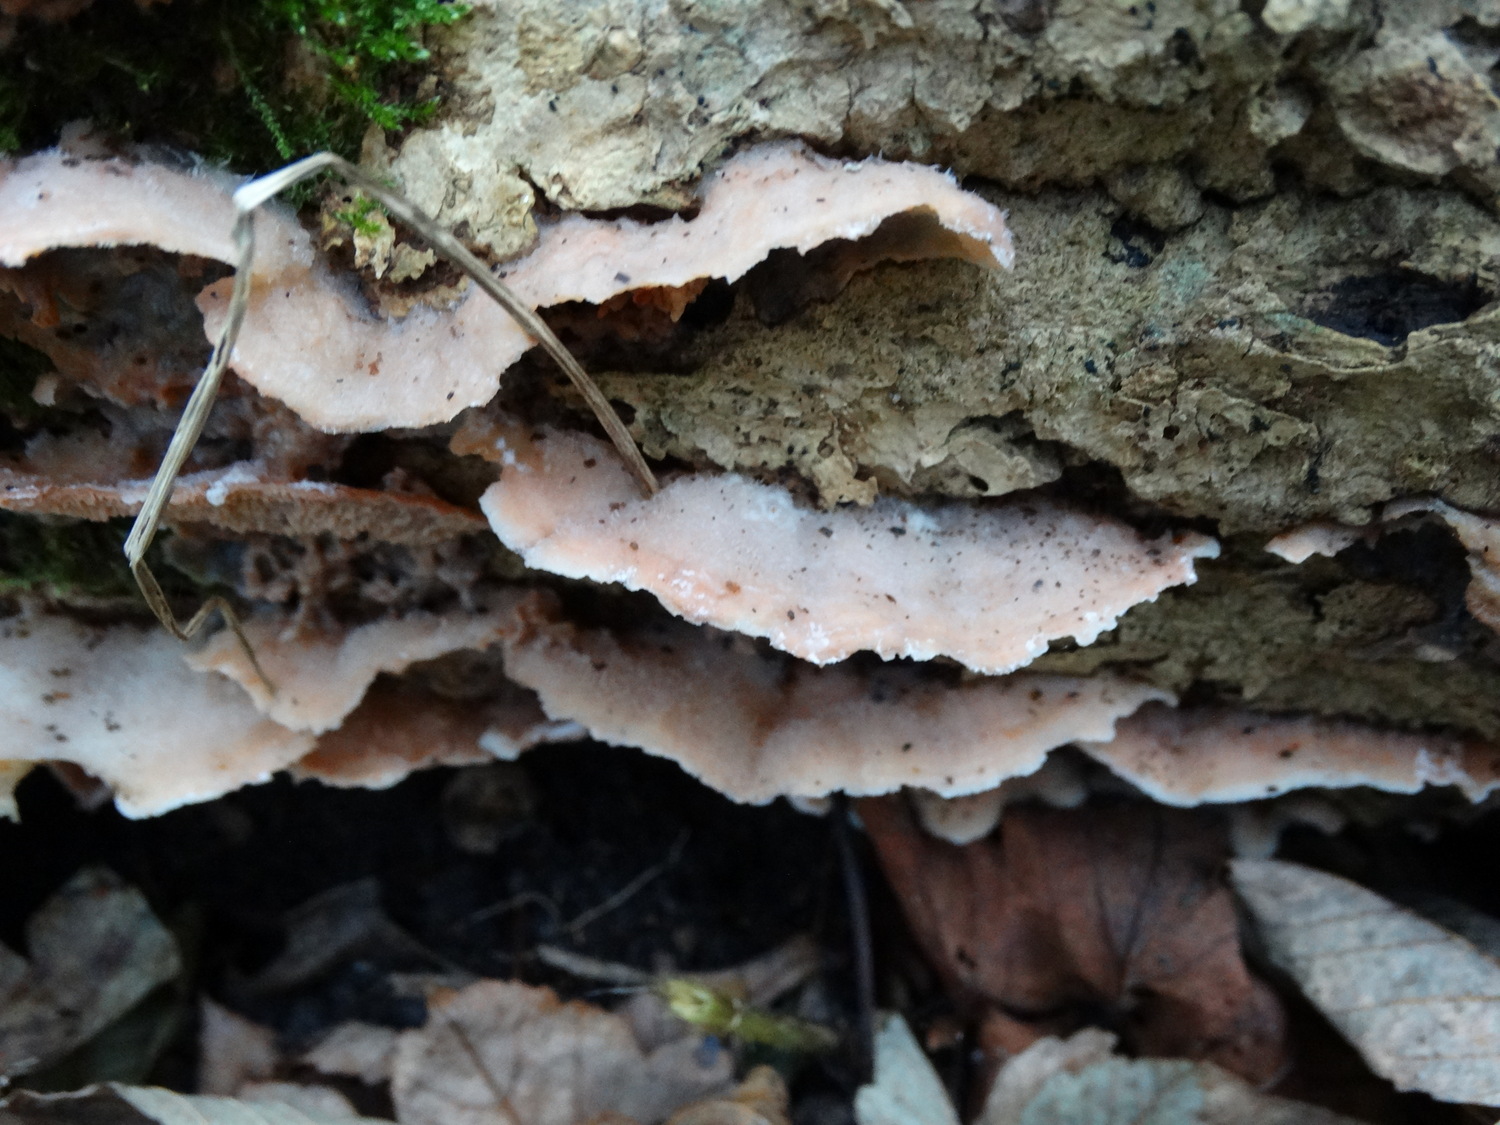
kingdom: Fungi
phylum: Basidiomycota
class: Agaricomycetes
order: Polyporales
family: Meruliaceae
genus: Phlebia
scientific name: Phlebia tremellosa
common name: bævrende åresvamp
